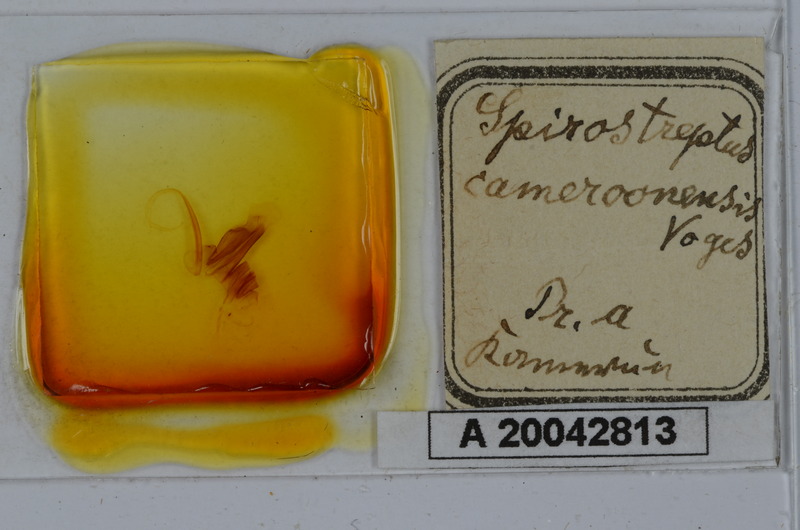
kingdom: Animalia
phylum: Arthropoda
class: Diplopoda
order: Spirostreptida
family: Spirostreptidae
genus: Kartinikus
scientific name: Kartinikus laevis
